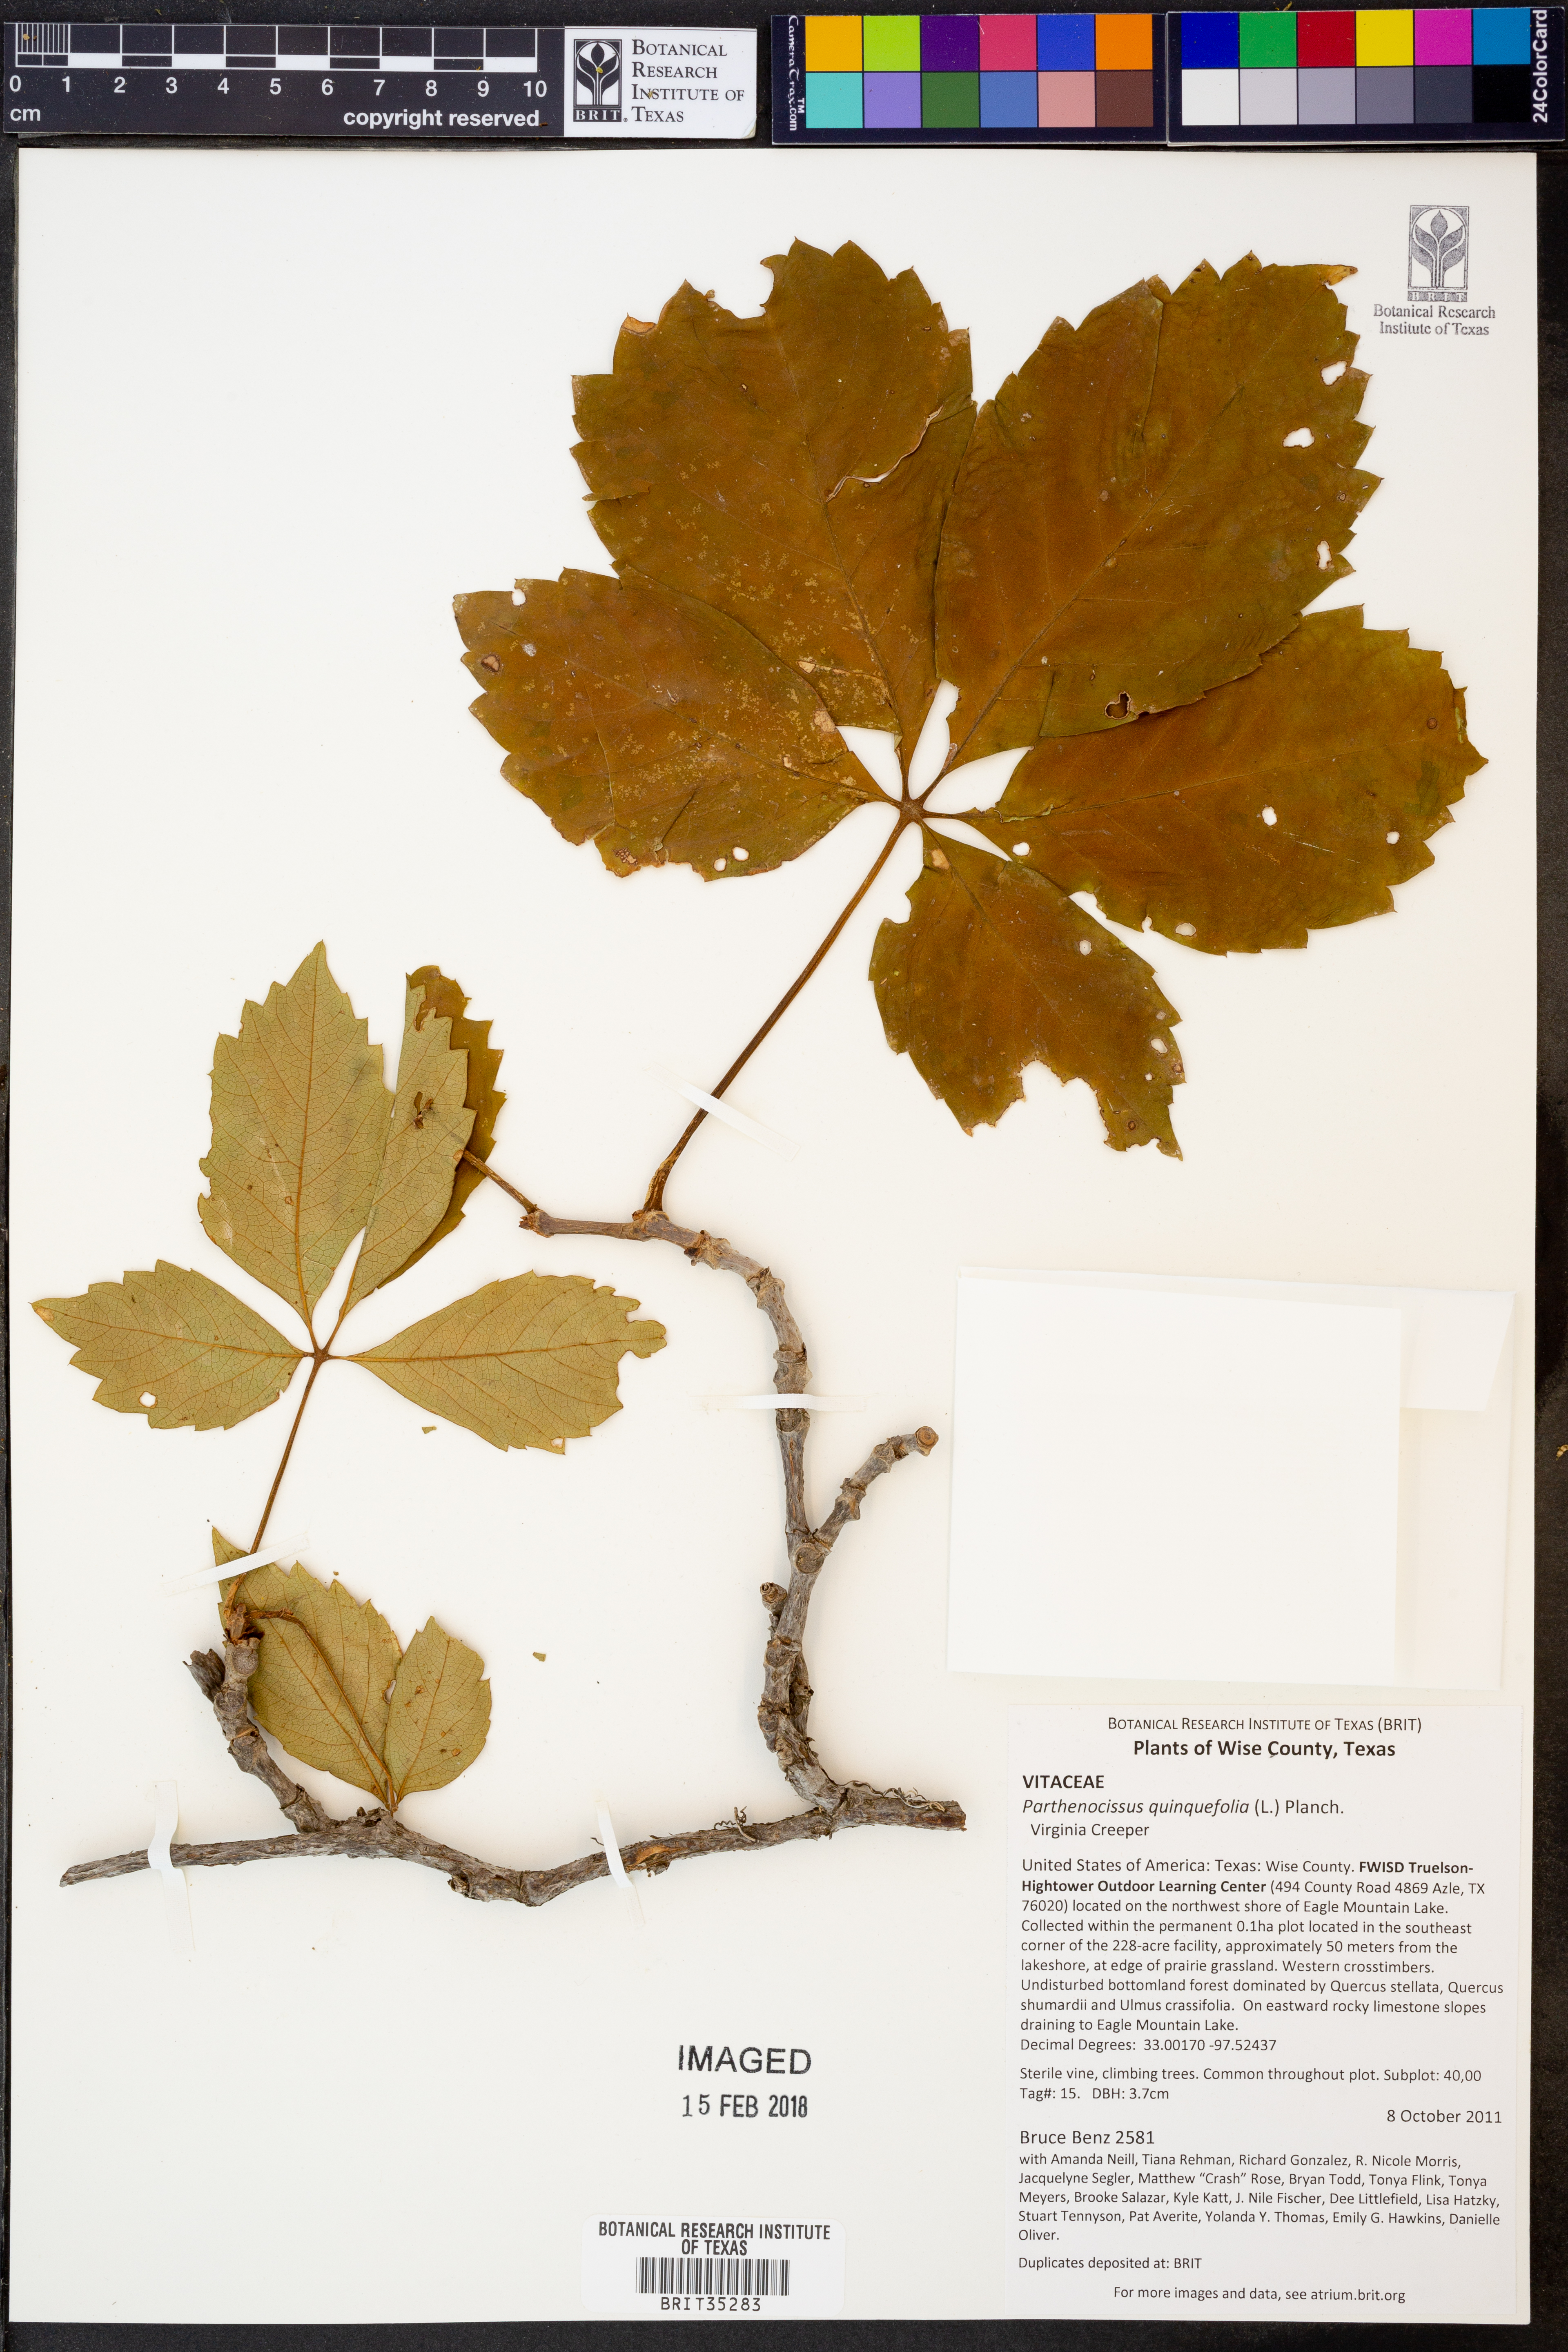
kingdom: Plantae
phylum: Tracheophyta
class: Magnoliopsida
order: Vitales
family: Vitaceae
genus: Parthenocissus
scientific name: Parthenocissus quinquefolia
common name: Virginia-creeper
